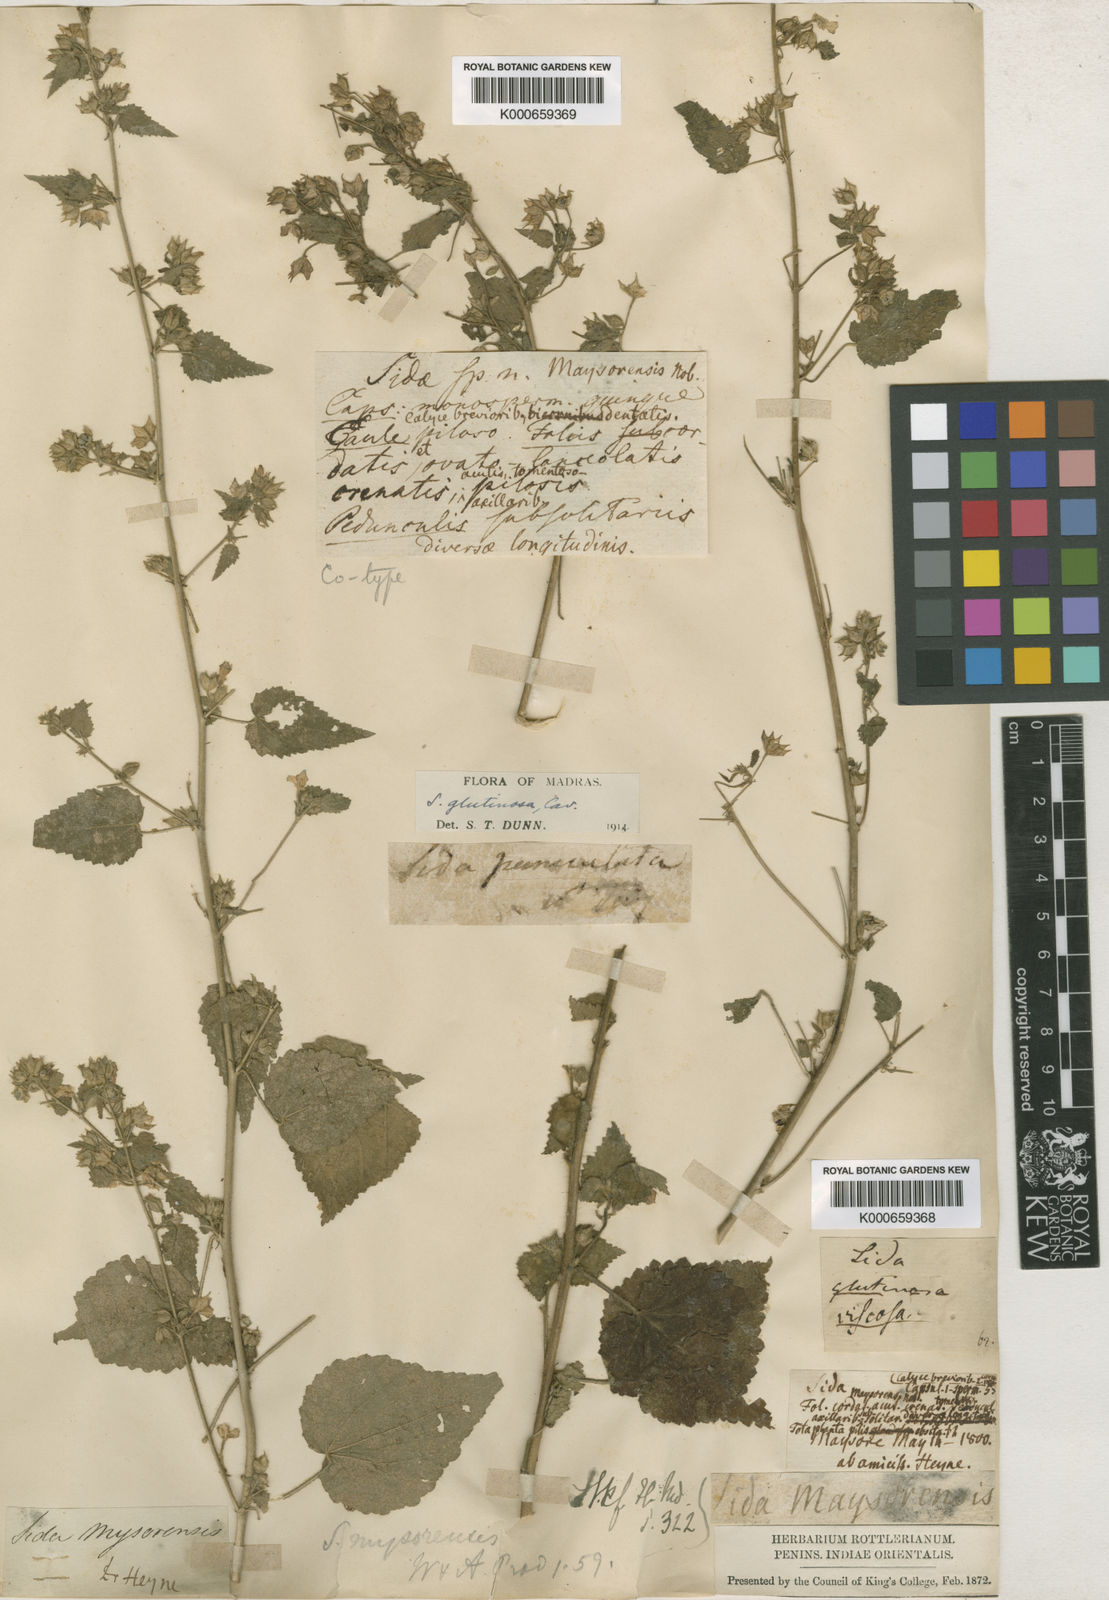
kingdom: Plantae
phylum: Tracheophyta
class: Magnoliopsida
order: Malvales
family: Malvaceae
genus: Sida
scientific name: Sida
